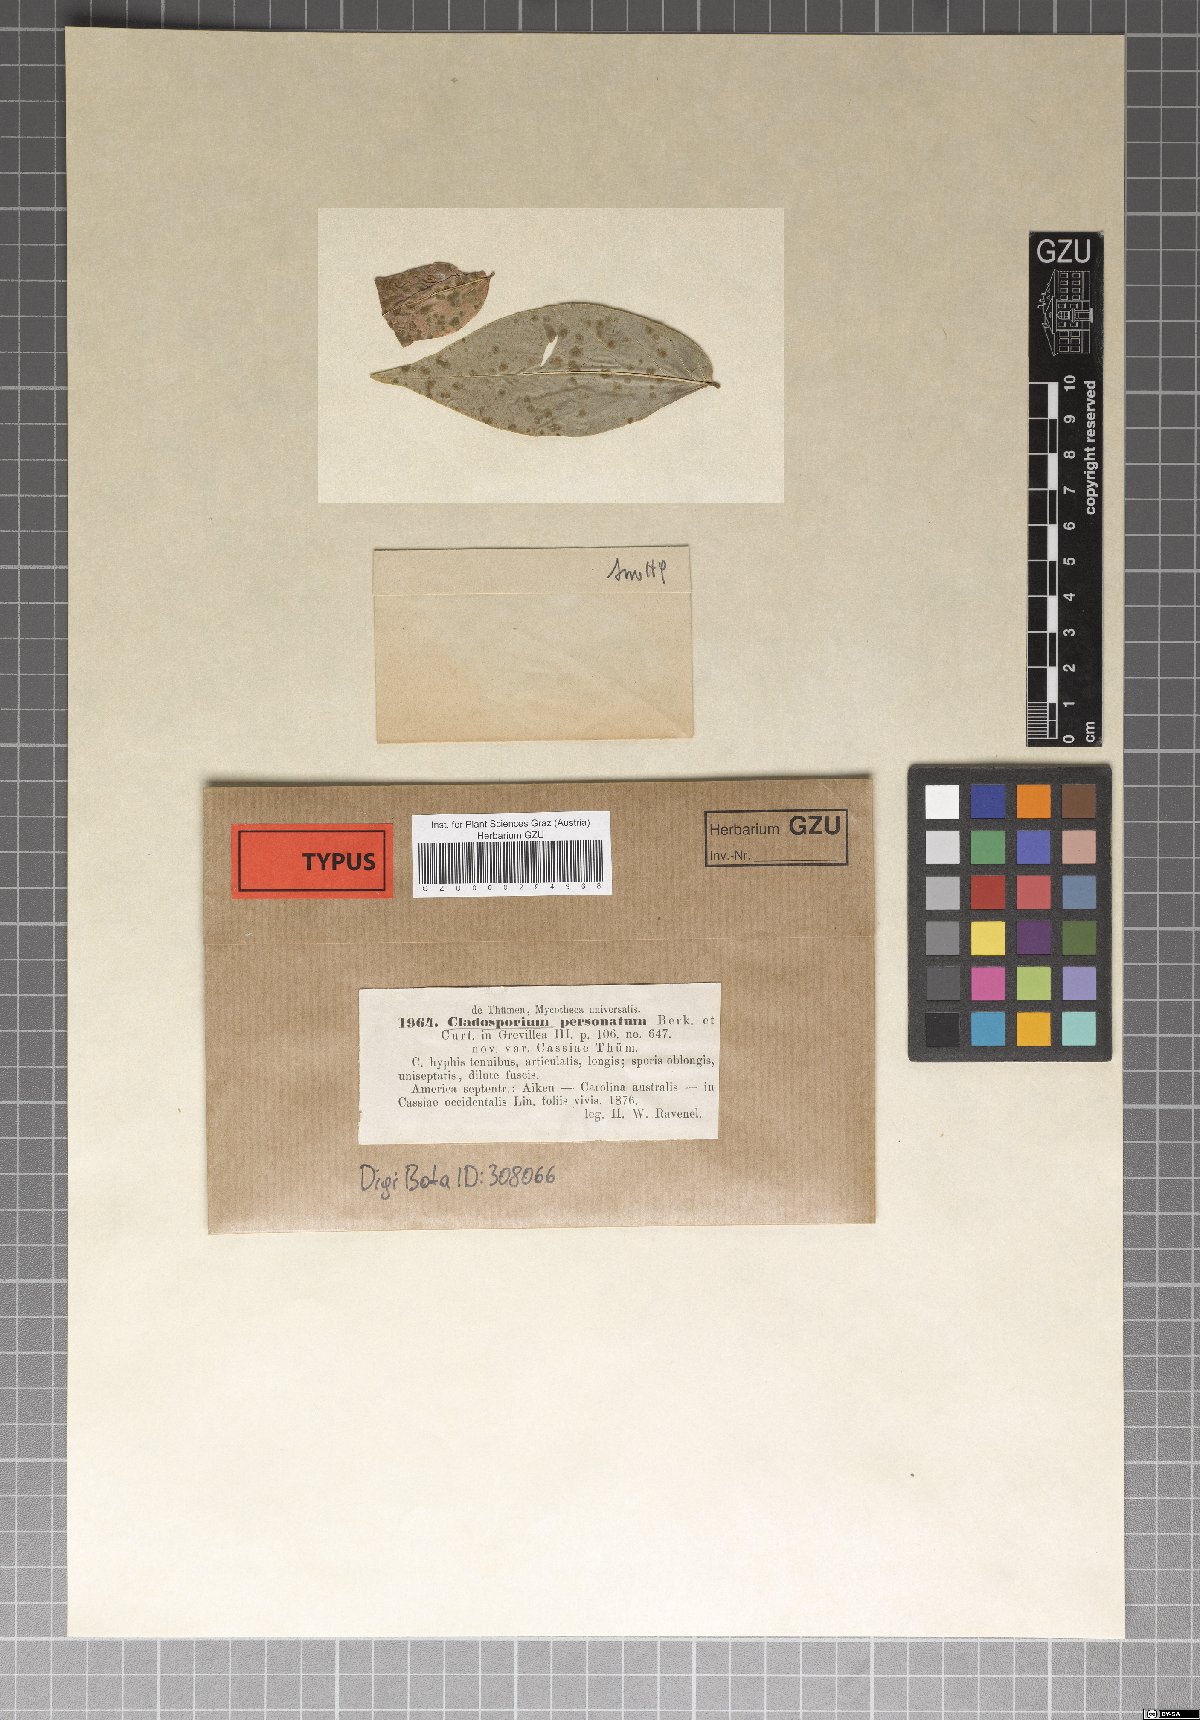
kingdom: Fungi
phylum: Ascomycota
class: Dothideomycetes
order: Mycosphaerellales
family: Mycosphaerellaceae
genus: Mycosphaerella
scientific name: Mycosphaerella berkeleyi
